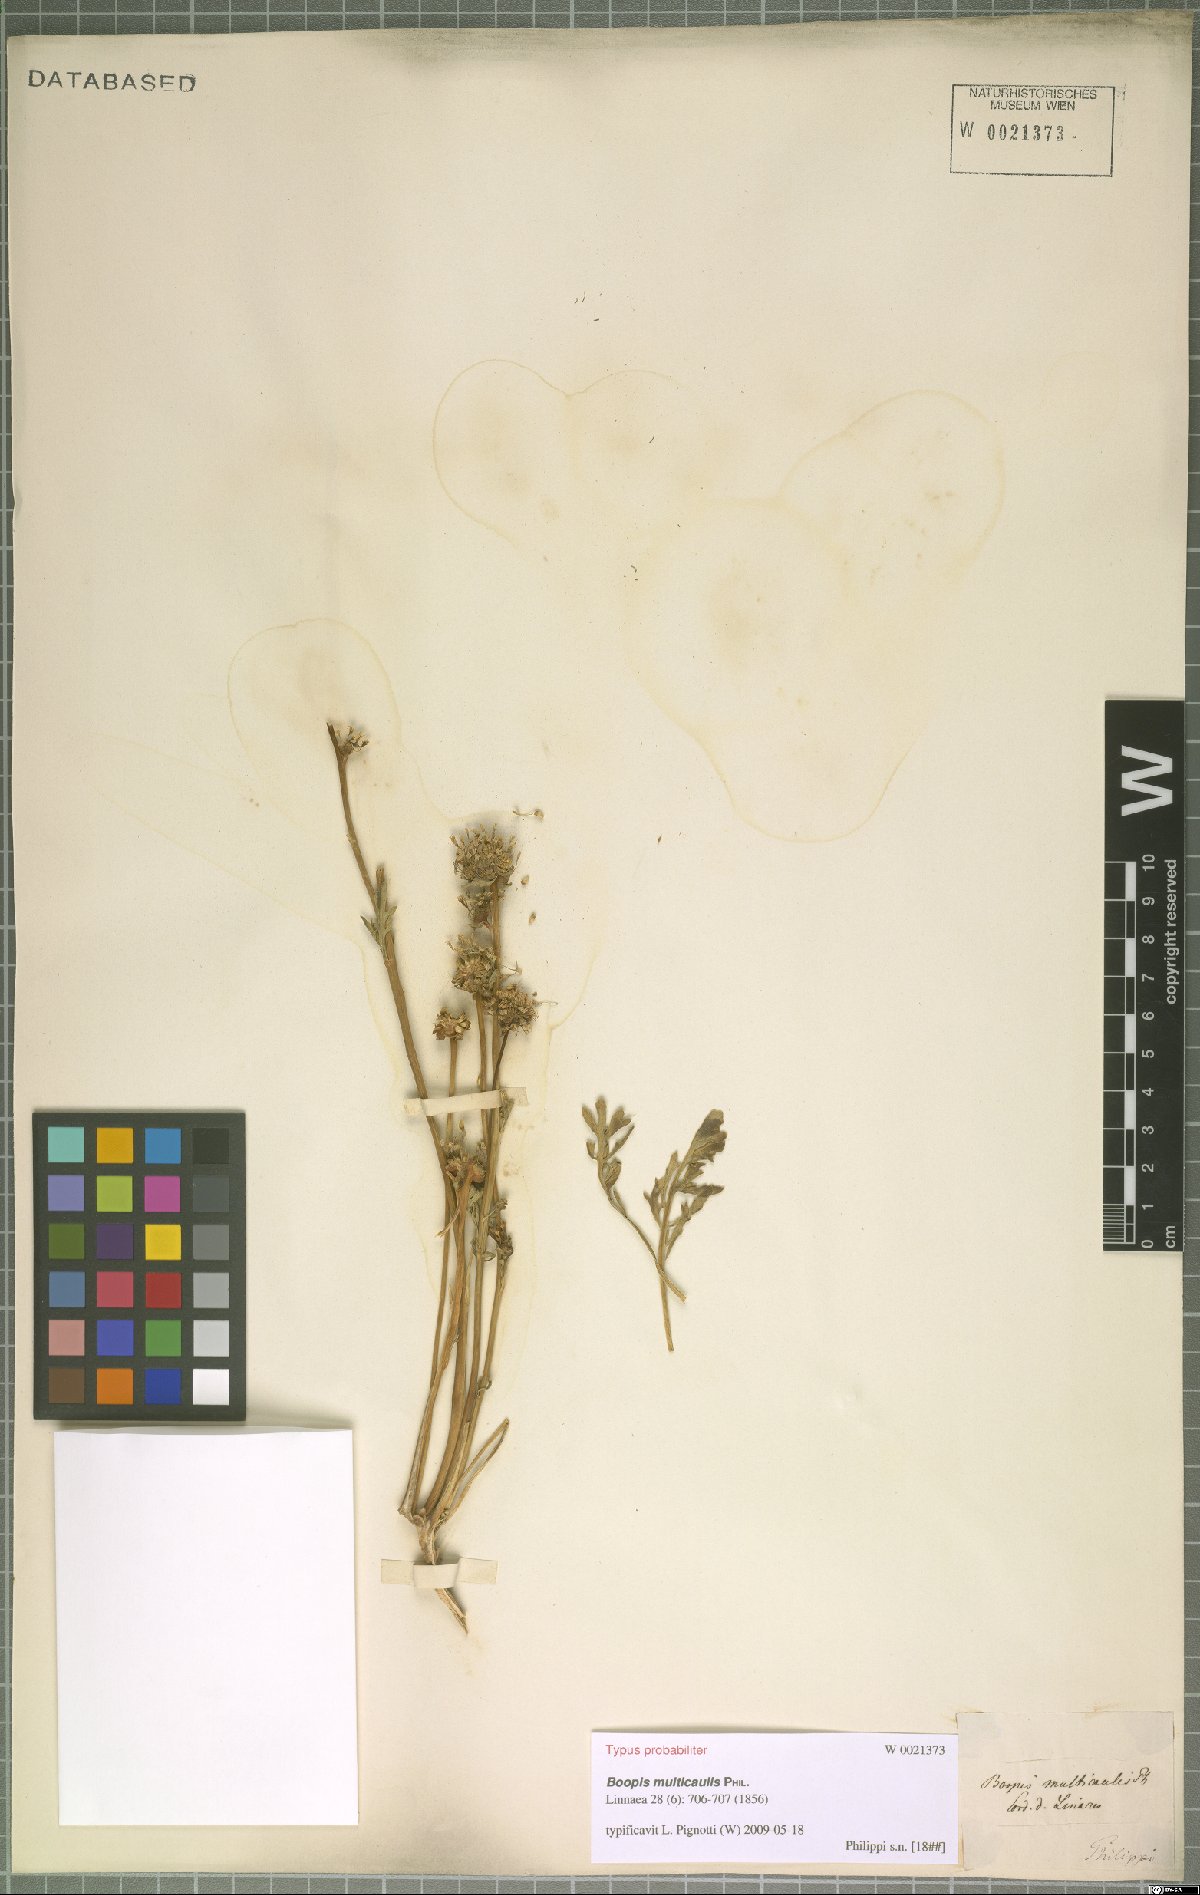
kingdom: Plantae
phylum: Tracheophyta
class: Magnoliopsida
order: Asterales
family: Calyceraceae
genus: Gamocarpha
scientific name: Gamocarpha multicaulis
